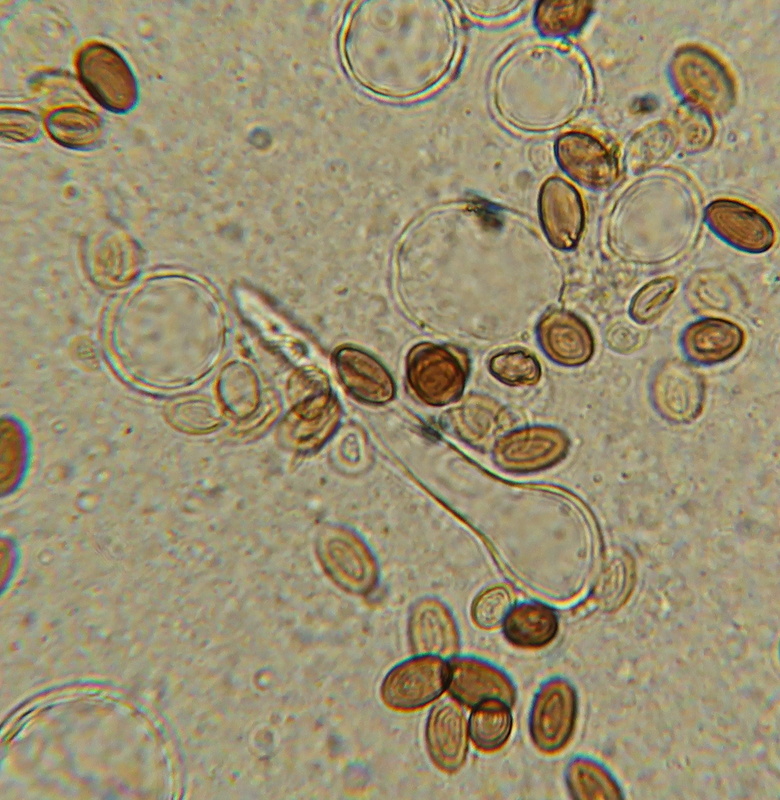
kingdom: Fungi
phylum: Basidiomycota
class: Agaricomycetes
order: Agaricales
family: Psathyrellaceae
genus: Tulosesus
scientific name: Tulosesus
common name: blækhat
